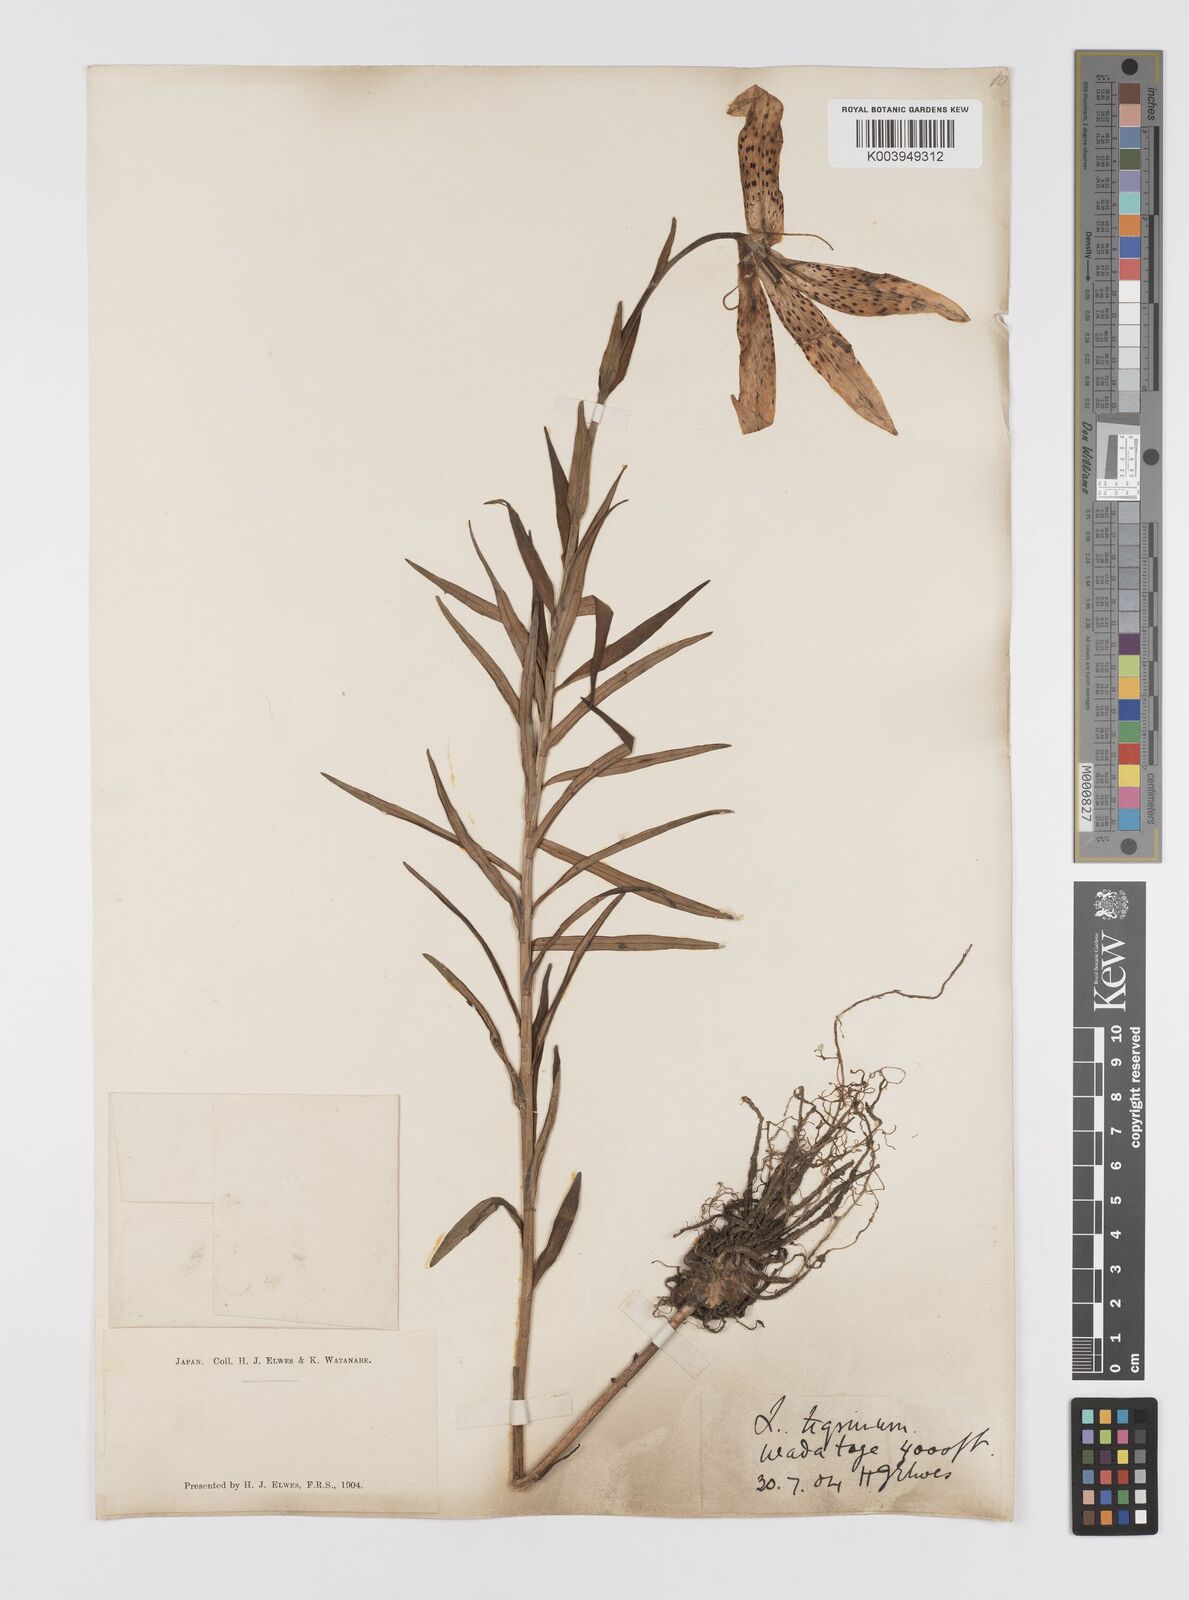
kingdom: Plantae
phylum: Tracheophyta
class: Liliopsida
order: Liliales
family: Liliaceae
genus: Lilium
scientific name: Lilium leichtlinii
